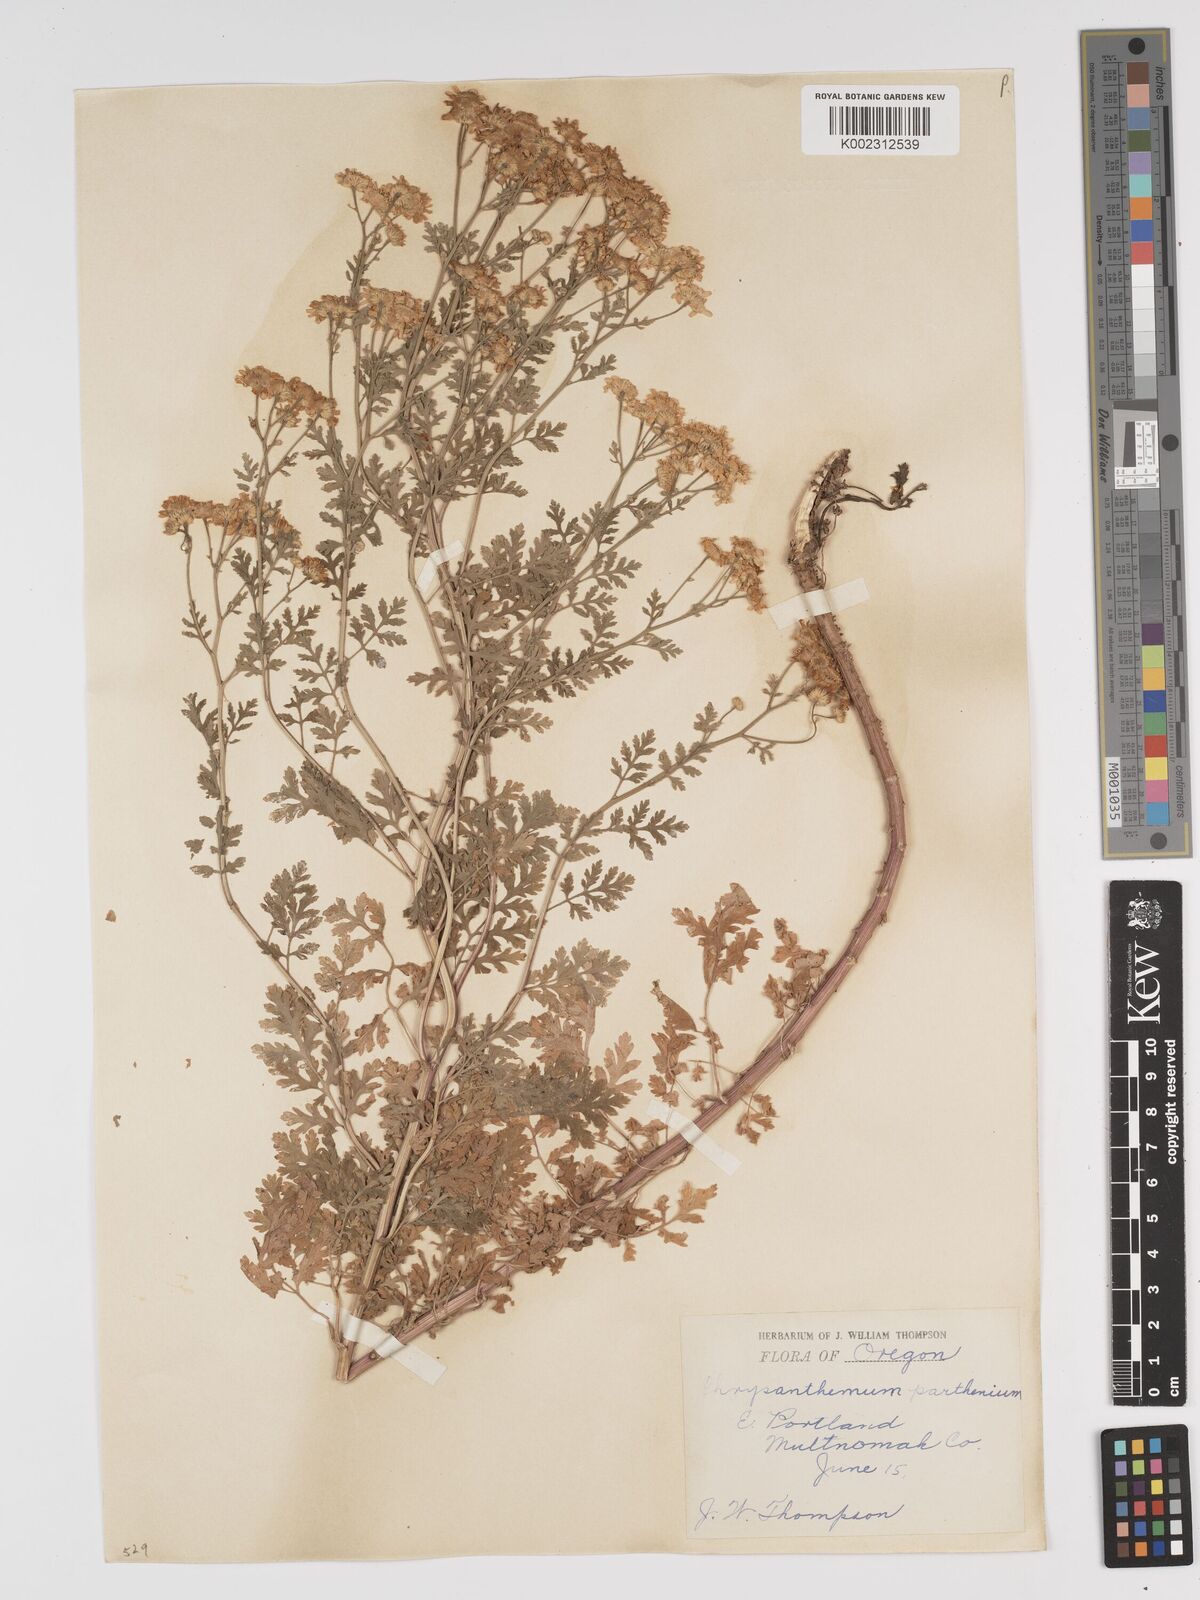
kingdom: Plantae
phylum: Tracheophyta
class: Magnoliopsida
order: Asterales
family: Asteraceae
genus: Tanacetum
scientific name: Tanacetum parthenium
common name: Feverfew
